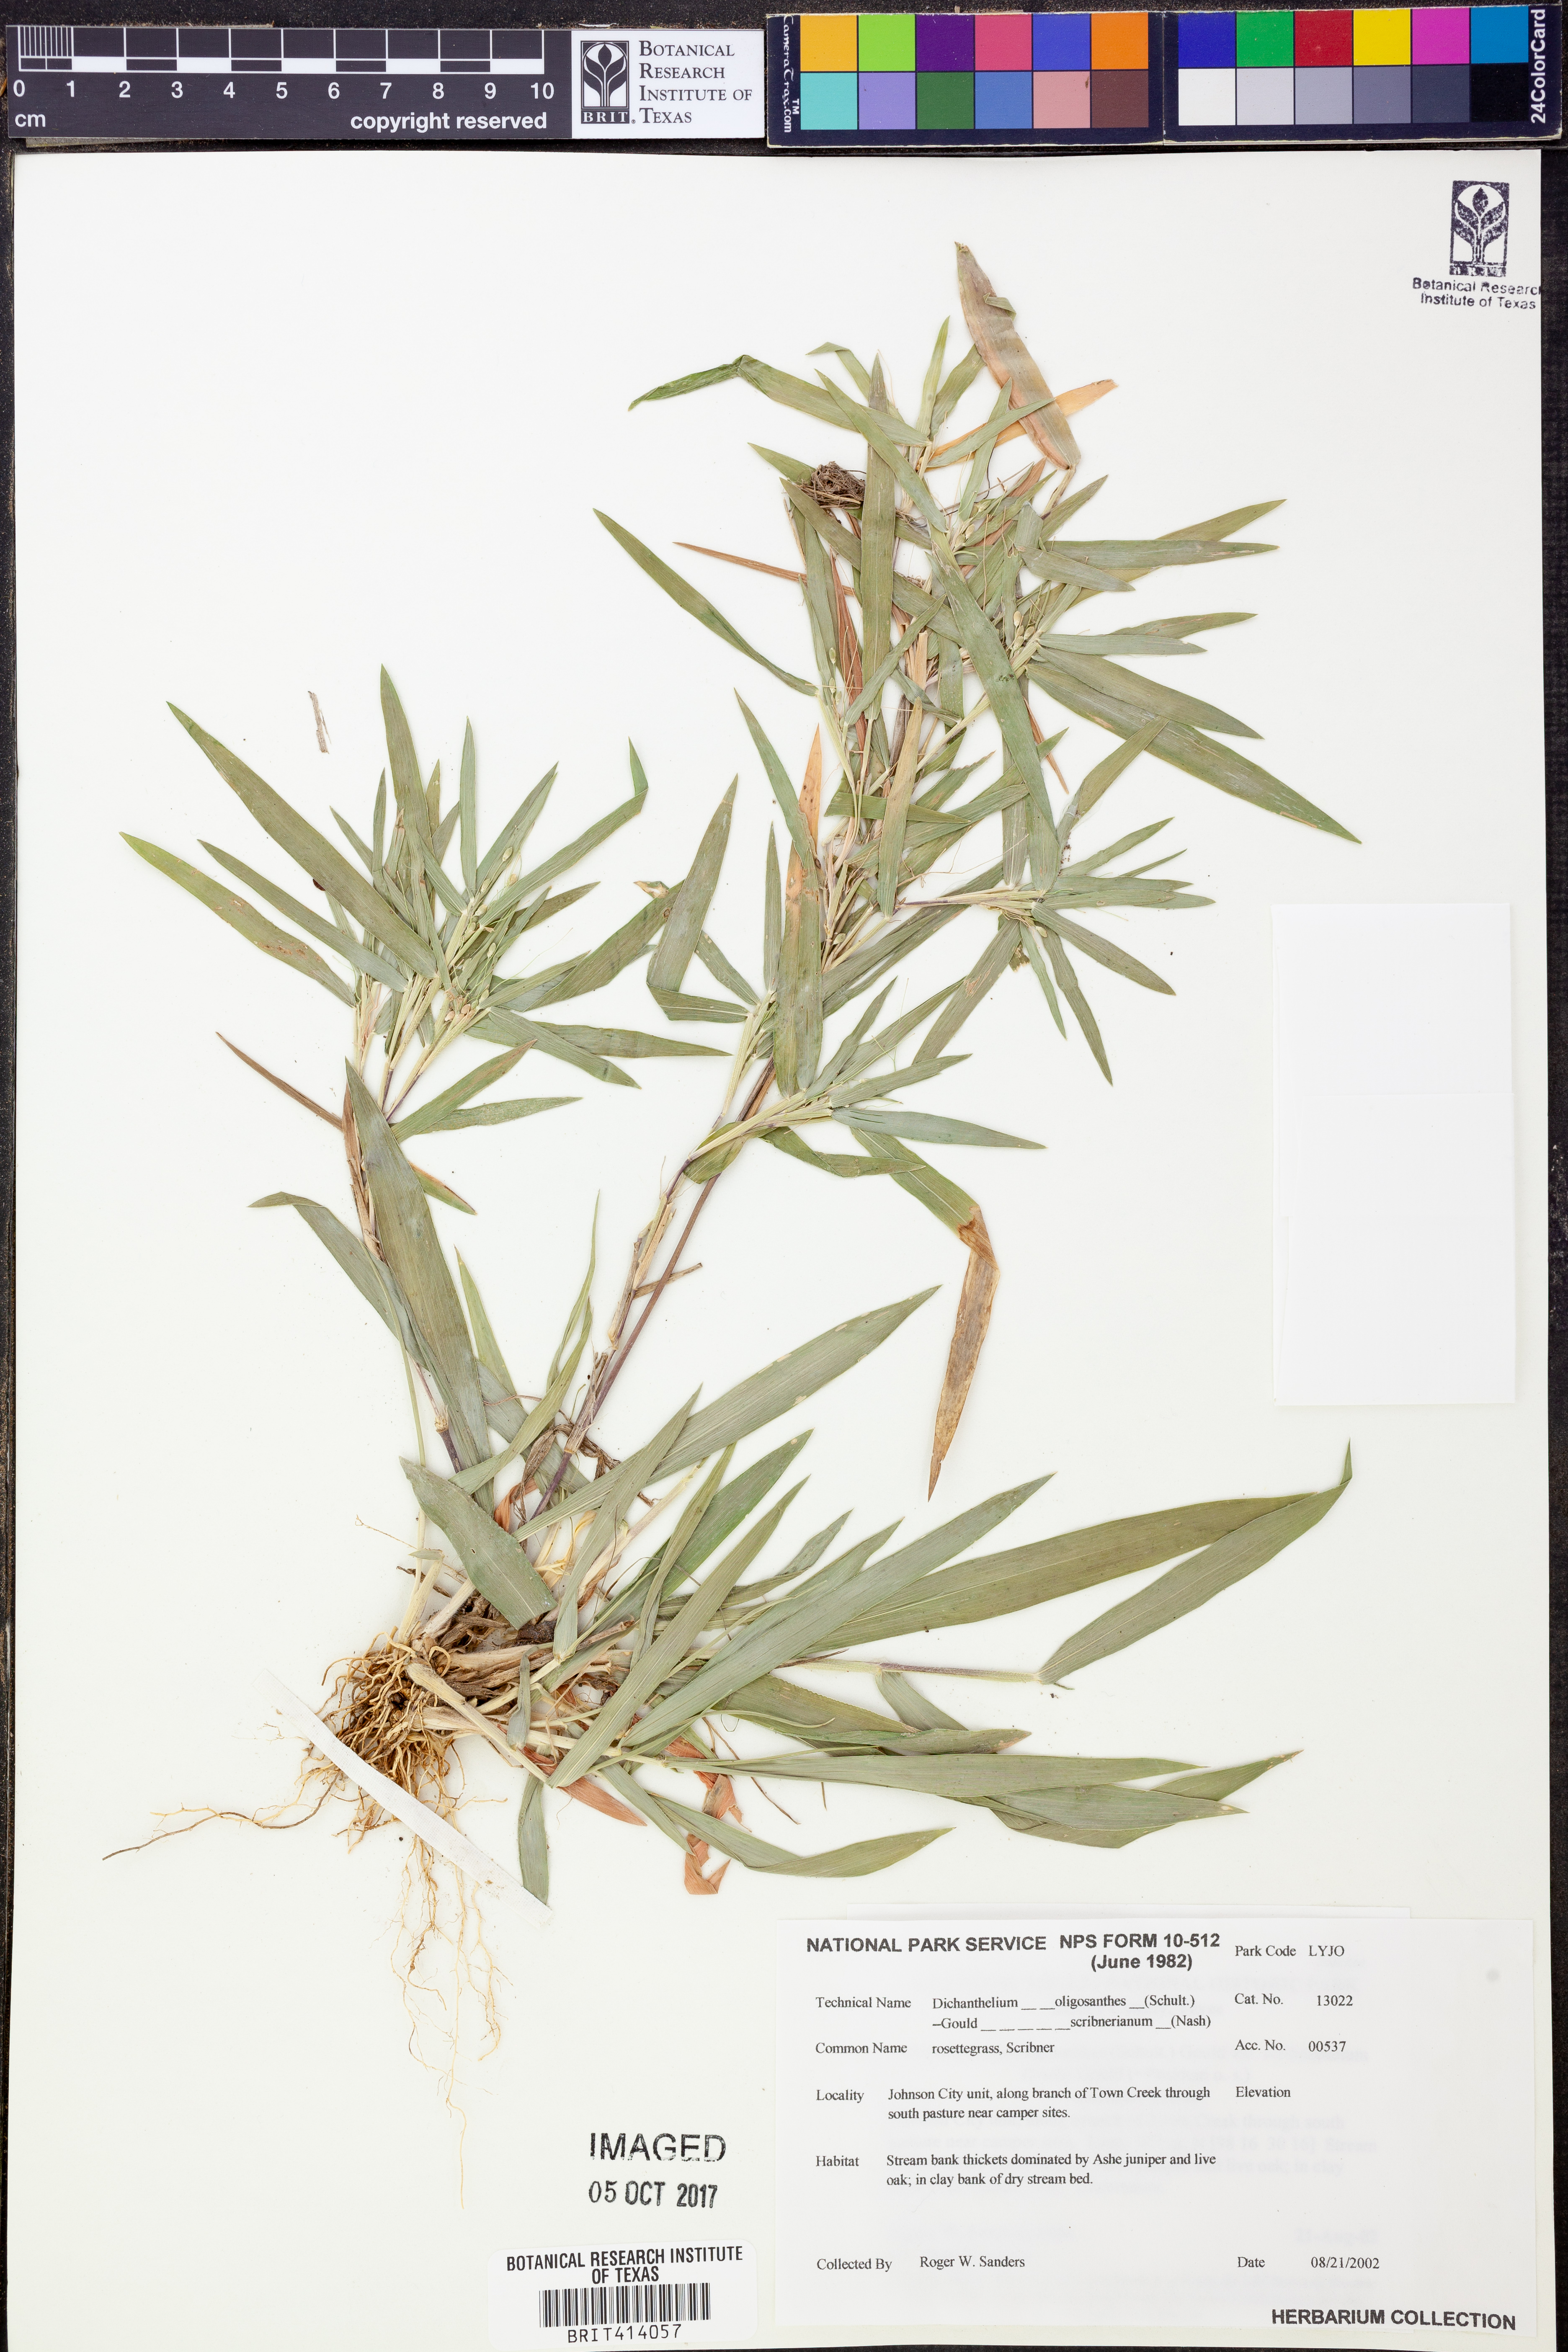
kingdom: Plantae
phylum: Tracheophyta
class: Liliopsida
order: Poales
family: Poaceae
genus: Dichanthelium
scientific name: Dichanthelium oligosanthes
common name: Few-anther obscuregrass
